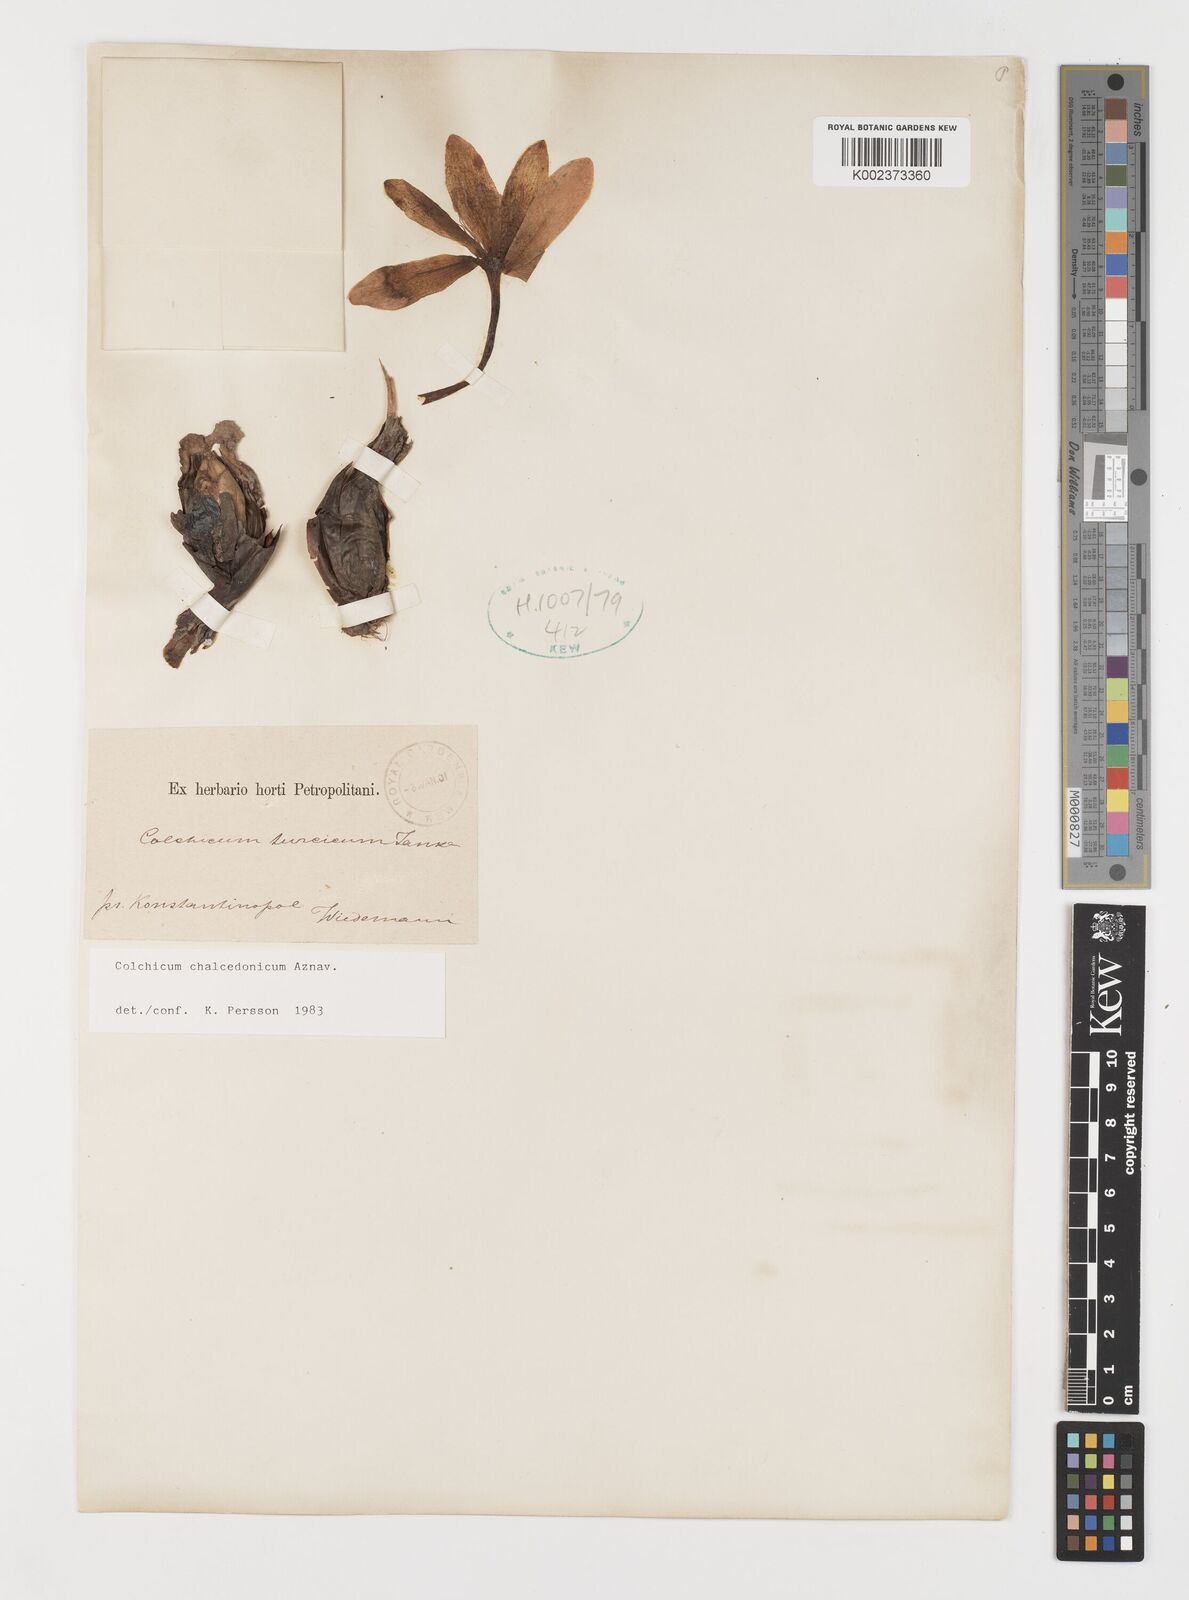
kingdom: Plantae
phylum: Tracheophyta
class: Liliopsida
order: Liliales
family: Colchicaceae
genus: Colchicum
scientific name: Colchicum chalcedonicum
